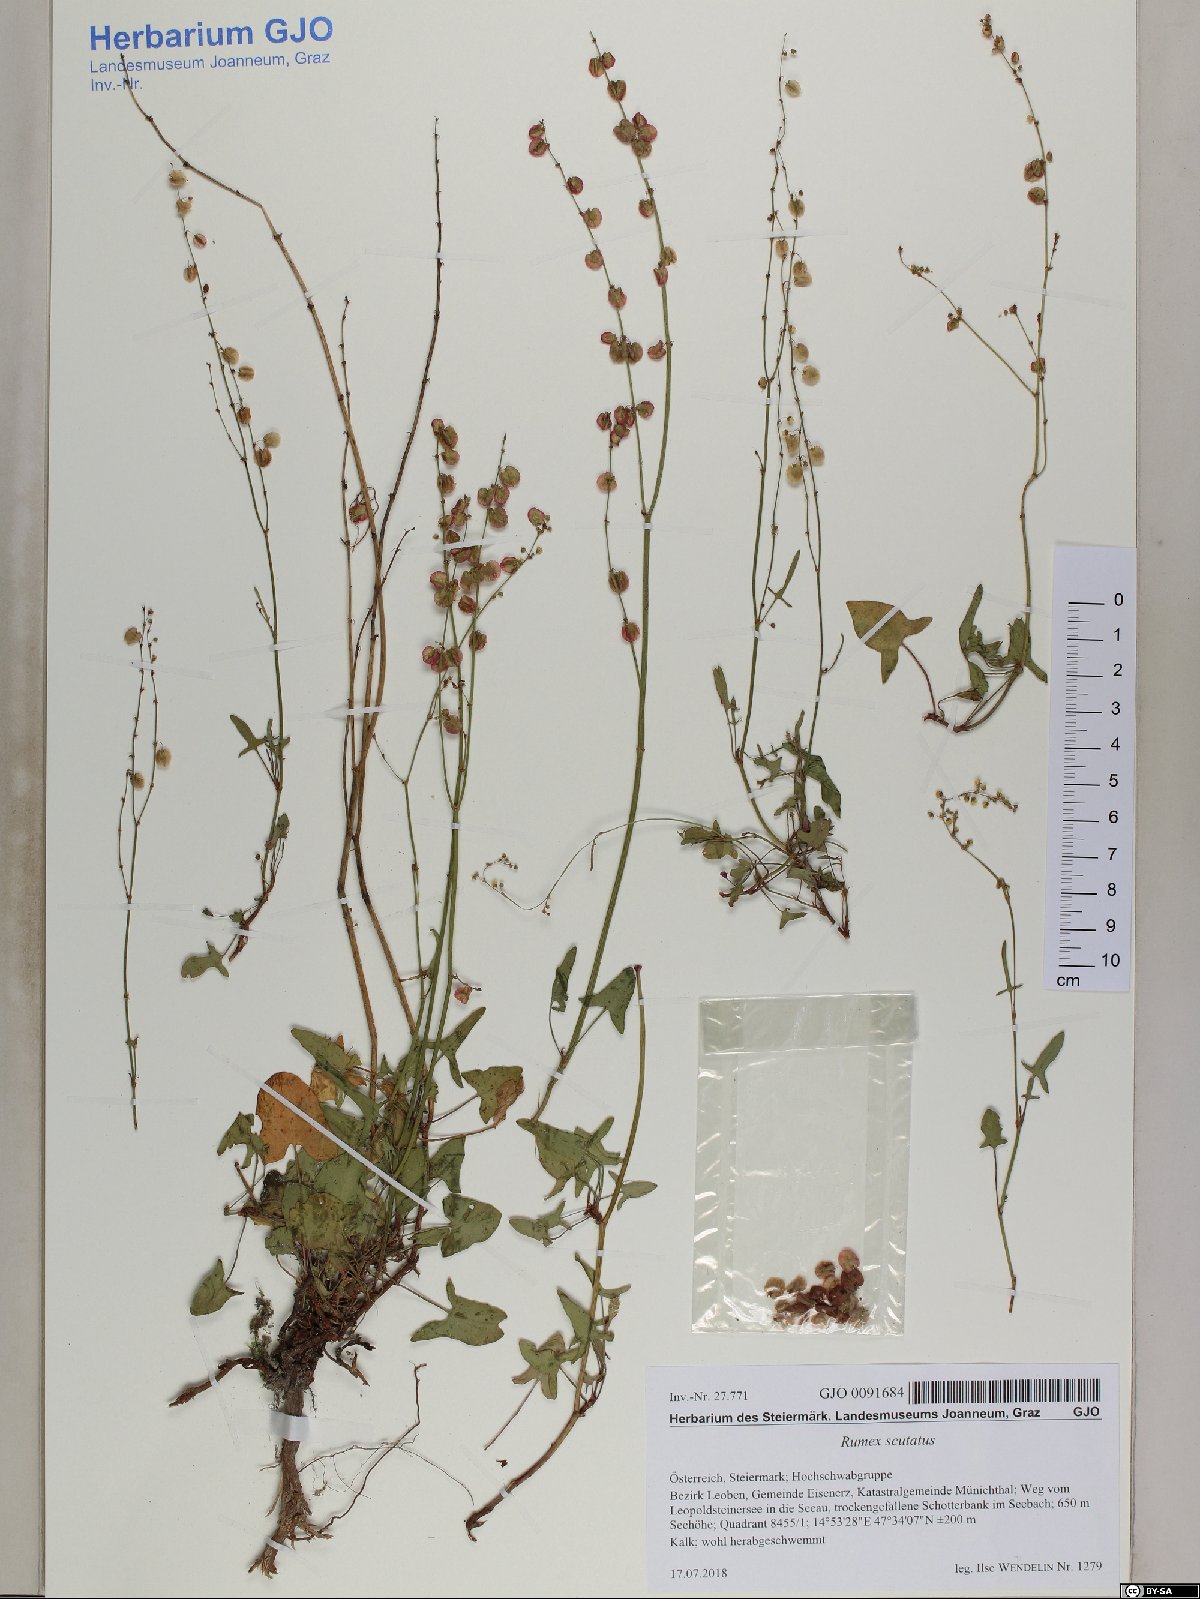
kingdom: Plantae
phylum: Tracheophyta
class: Magnoliopsida
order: Caryophyllales
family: Polygonaceae
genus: Rumex
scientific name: Rumex scutatus
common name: French sorrel
